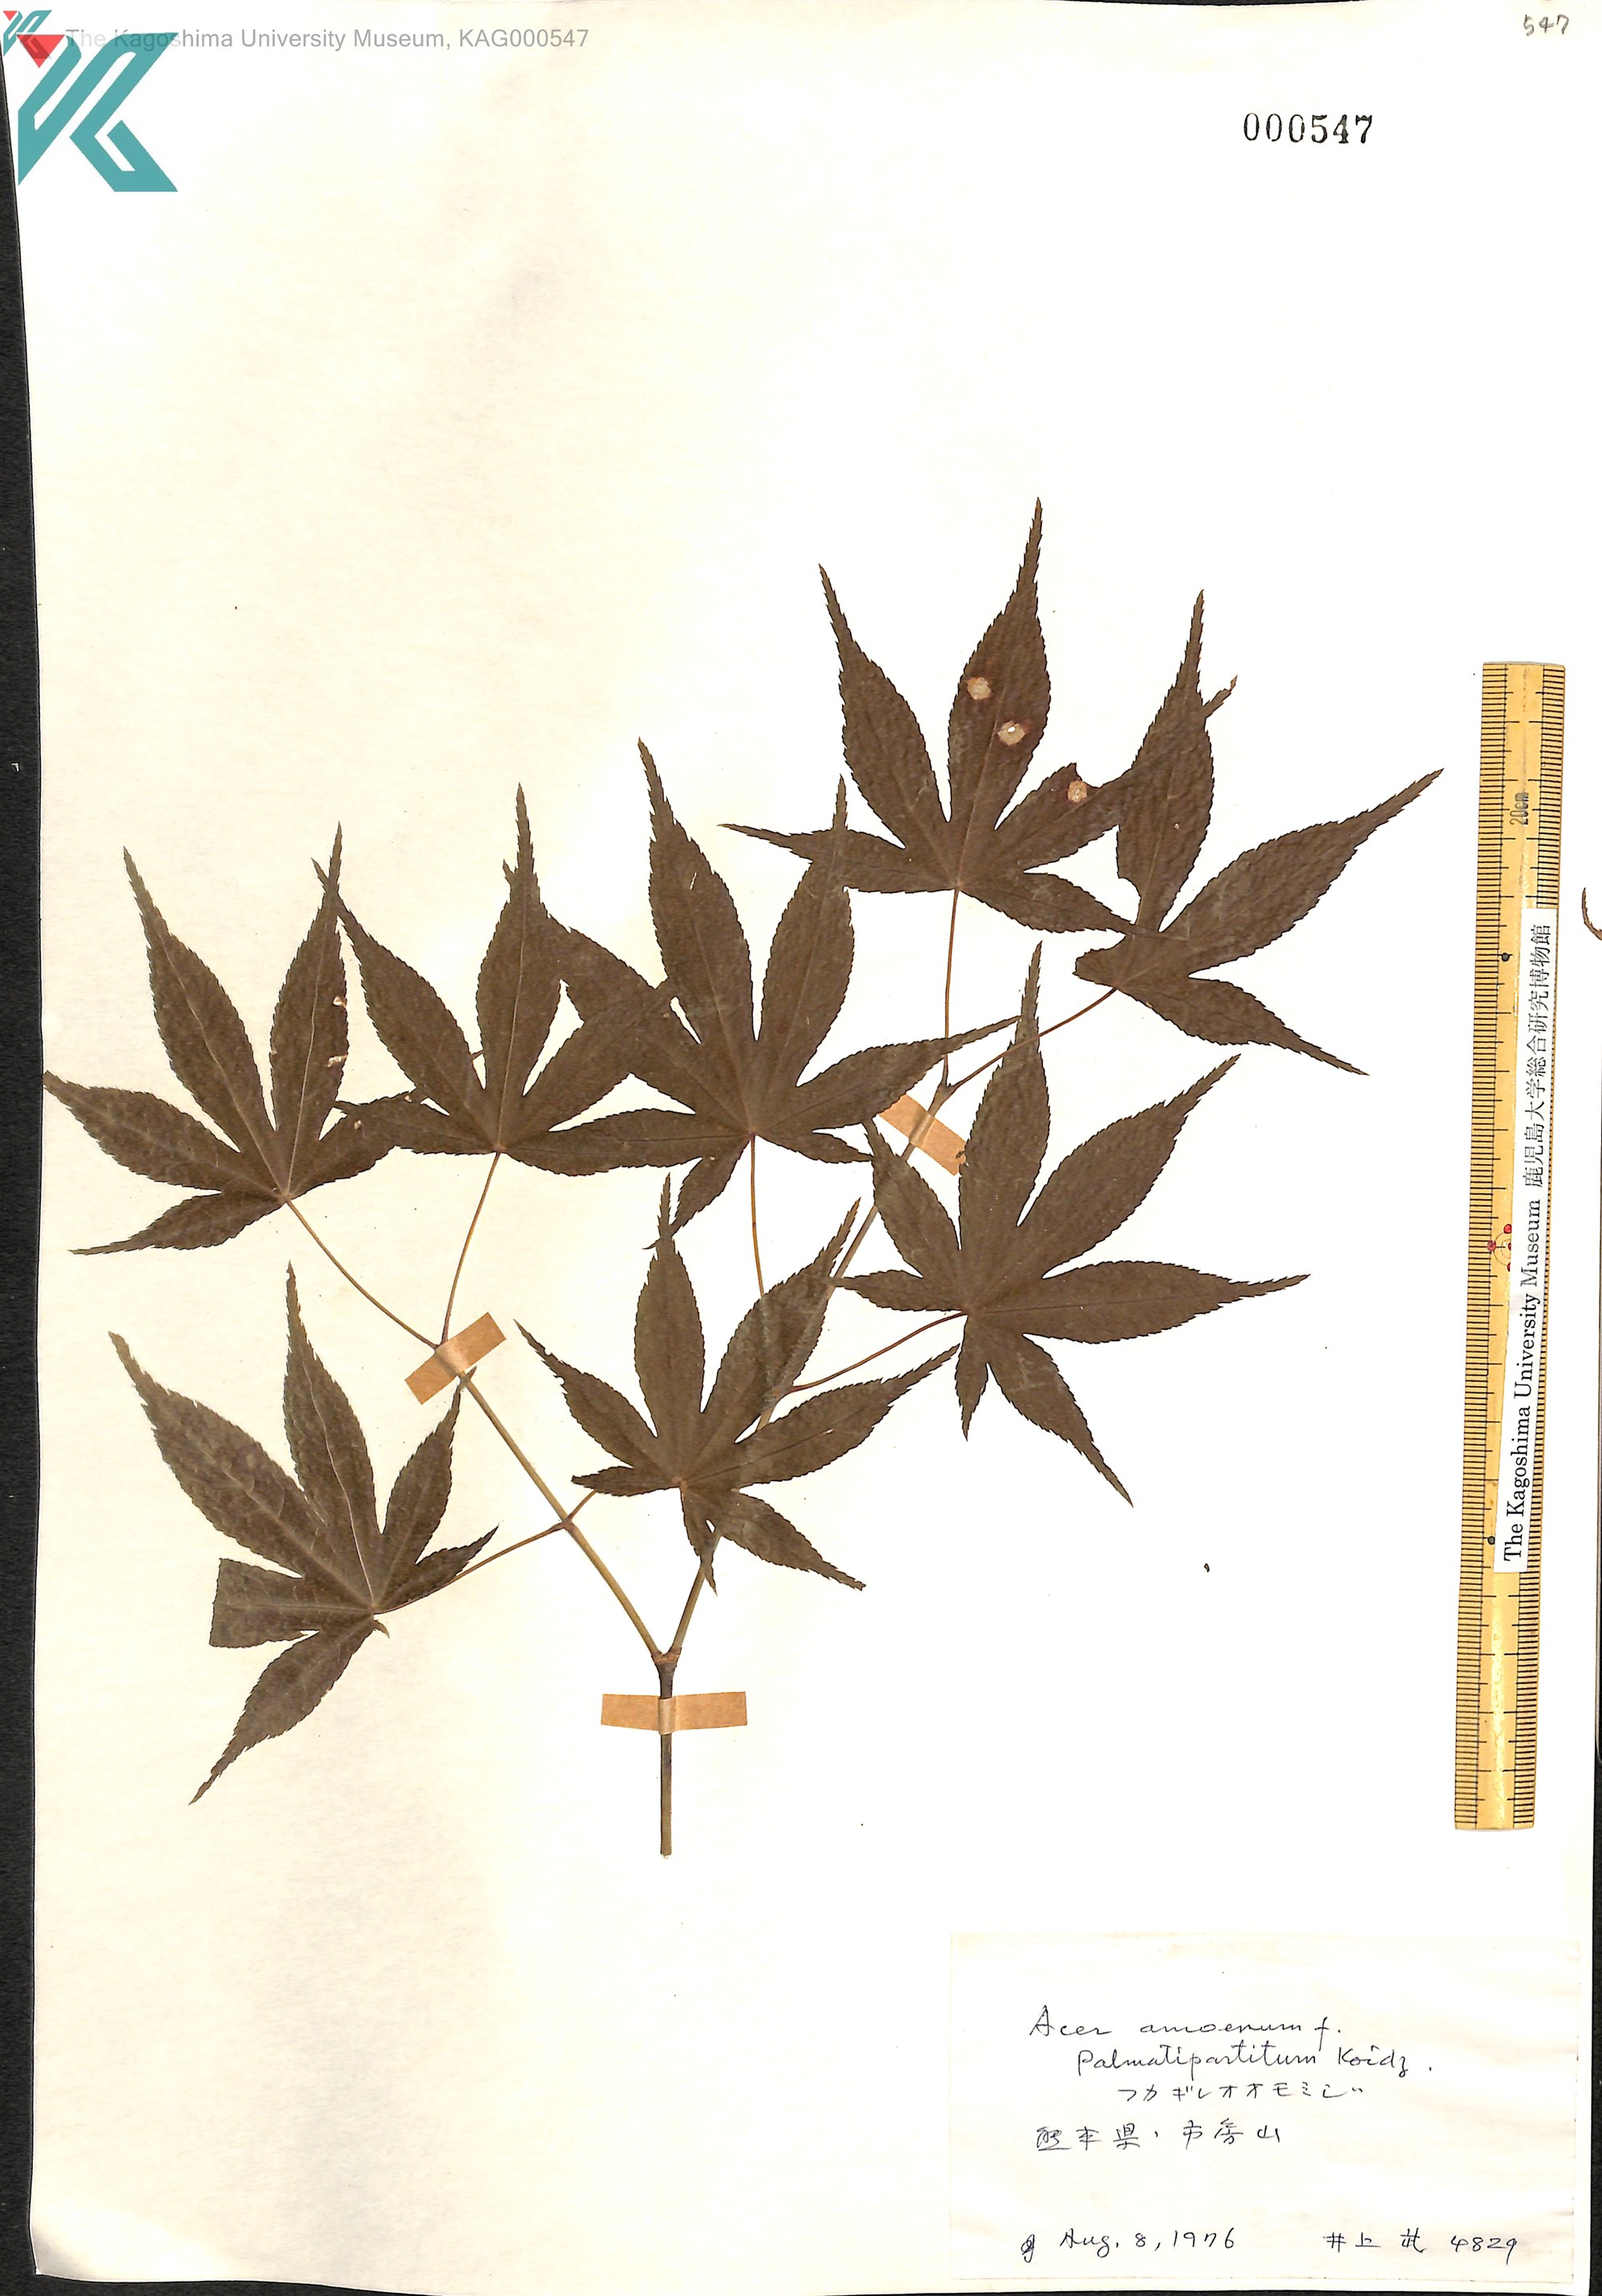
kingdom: Plantae
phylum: Tracheophyta
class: Magnoliopsida
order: Sapindales
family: Sapindaceae
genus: Acer
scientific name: Acer palmatum
